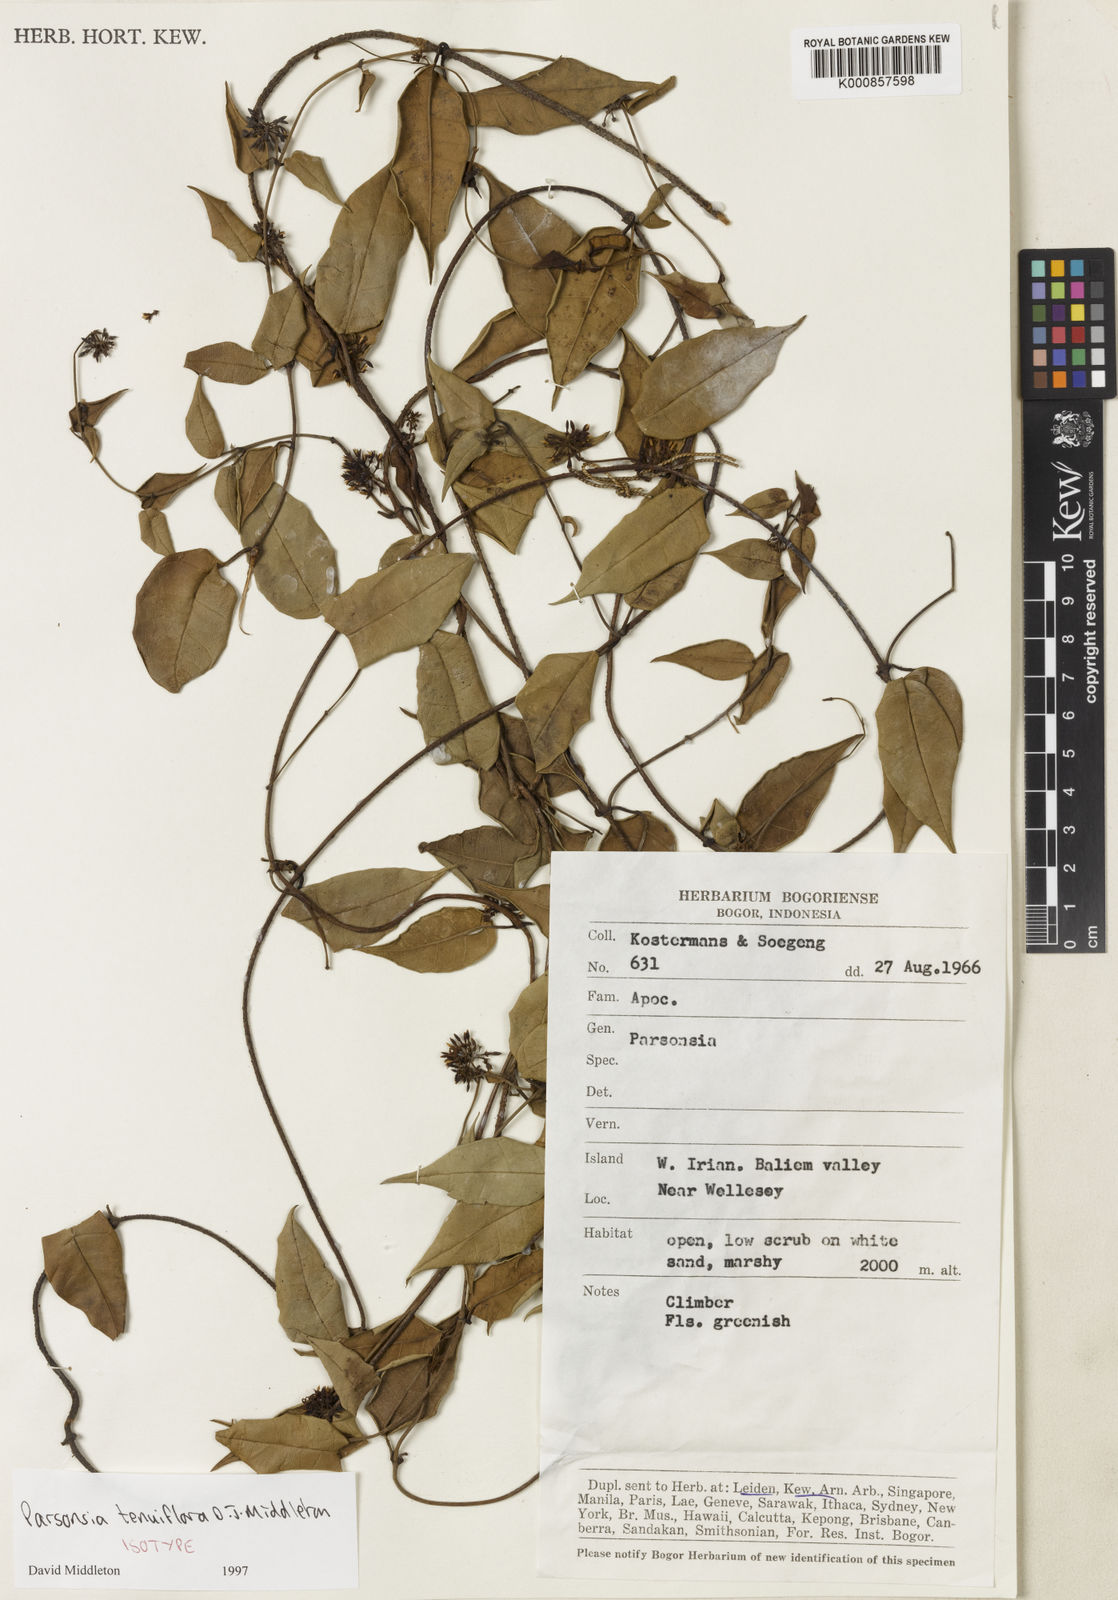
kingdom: Plantae
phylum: Tracheophyta
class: Magnoliopsida
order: Gentianales
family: Apocynaceae
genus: Parsonsia
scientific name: Parsonsia tenuiflora
